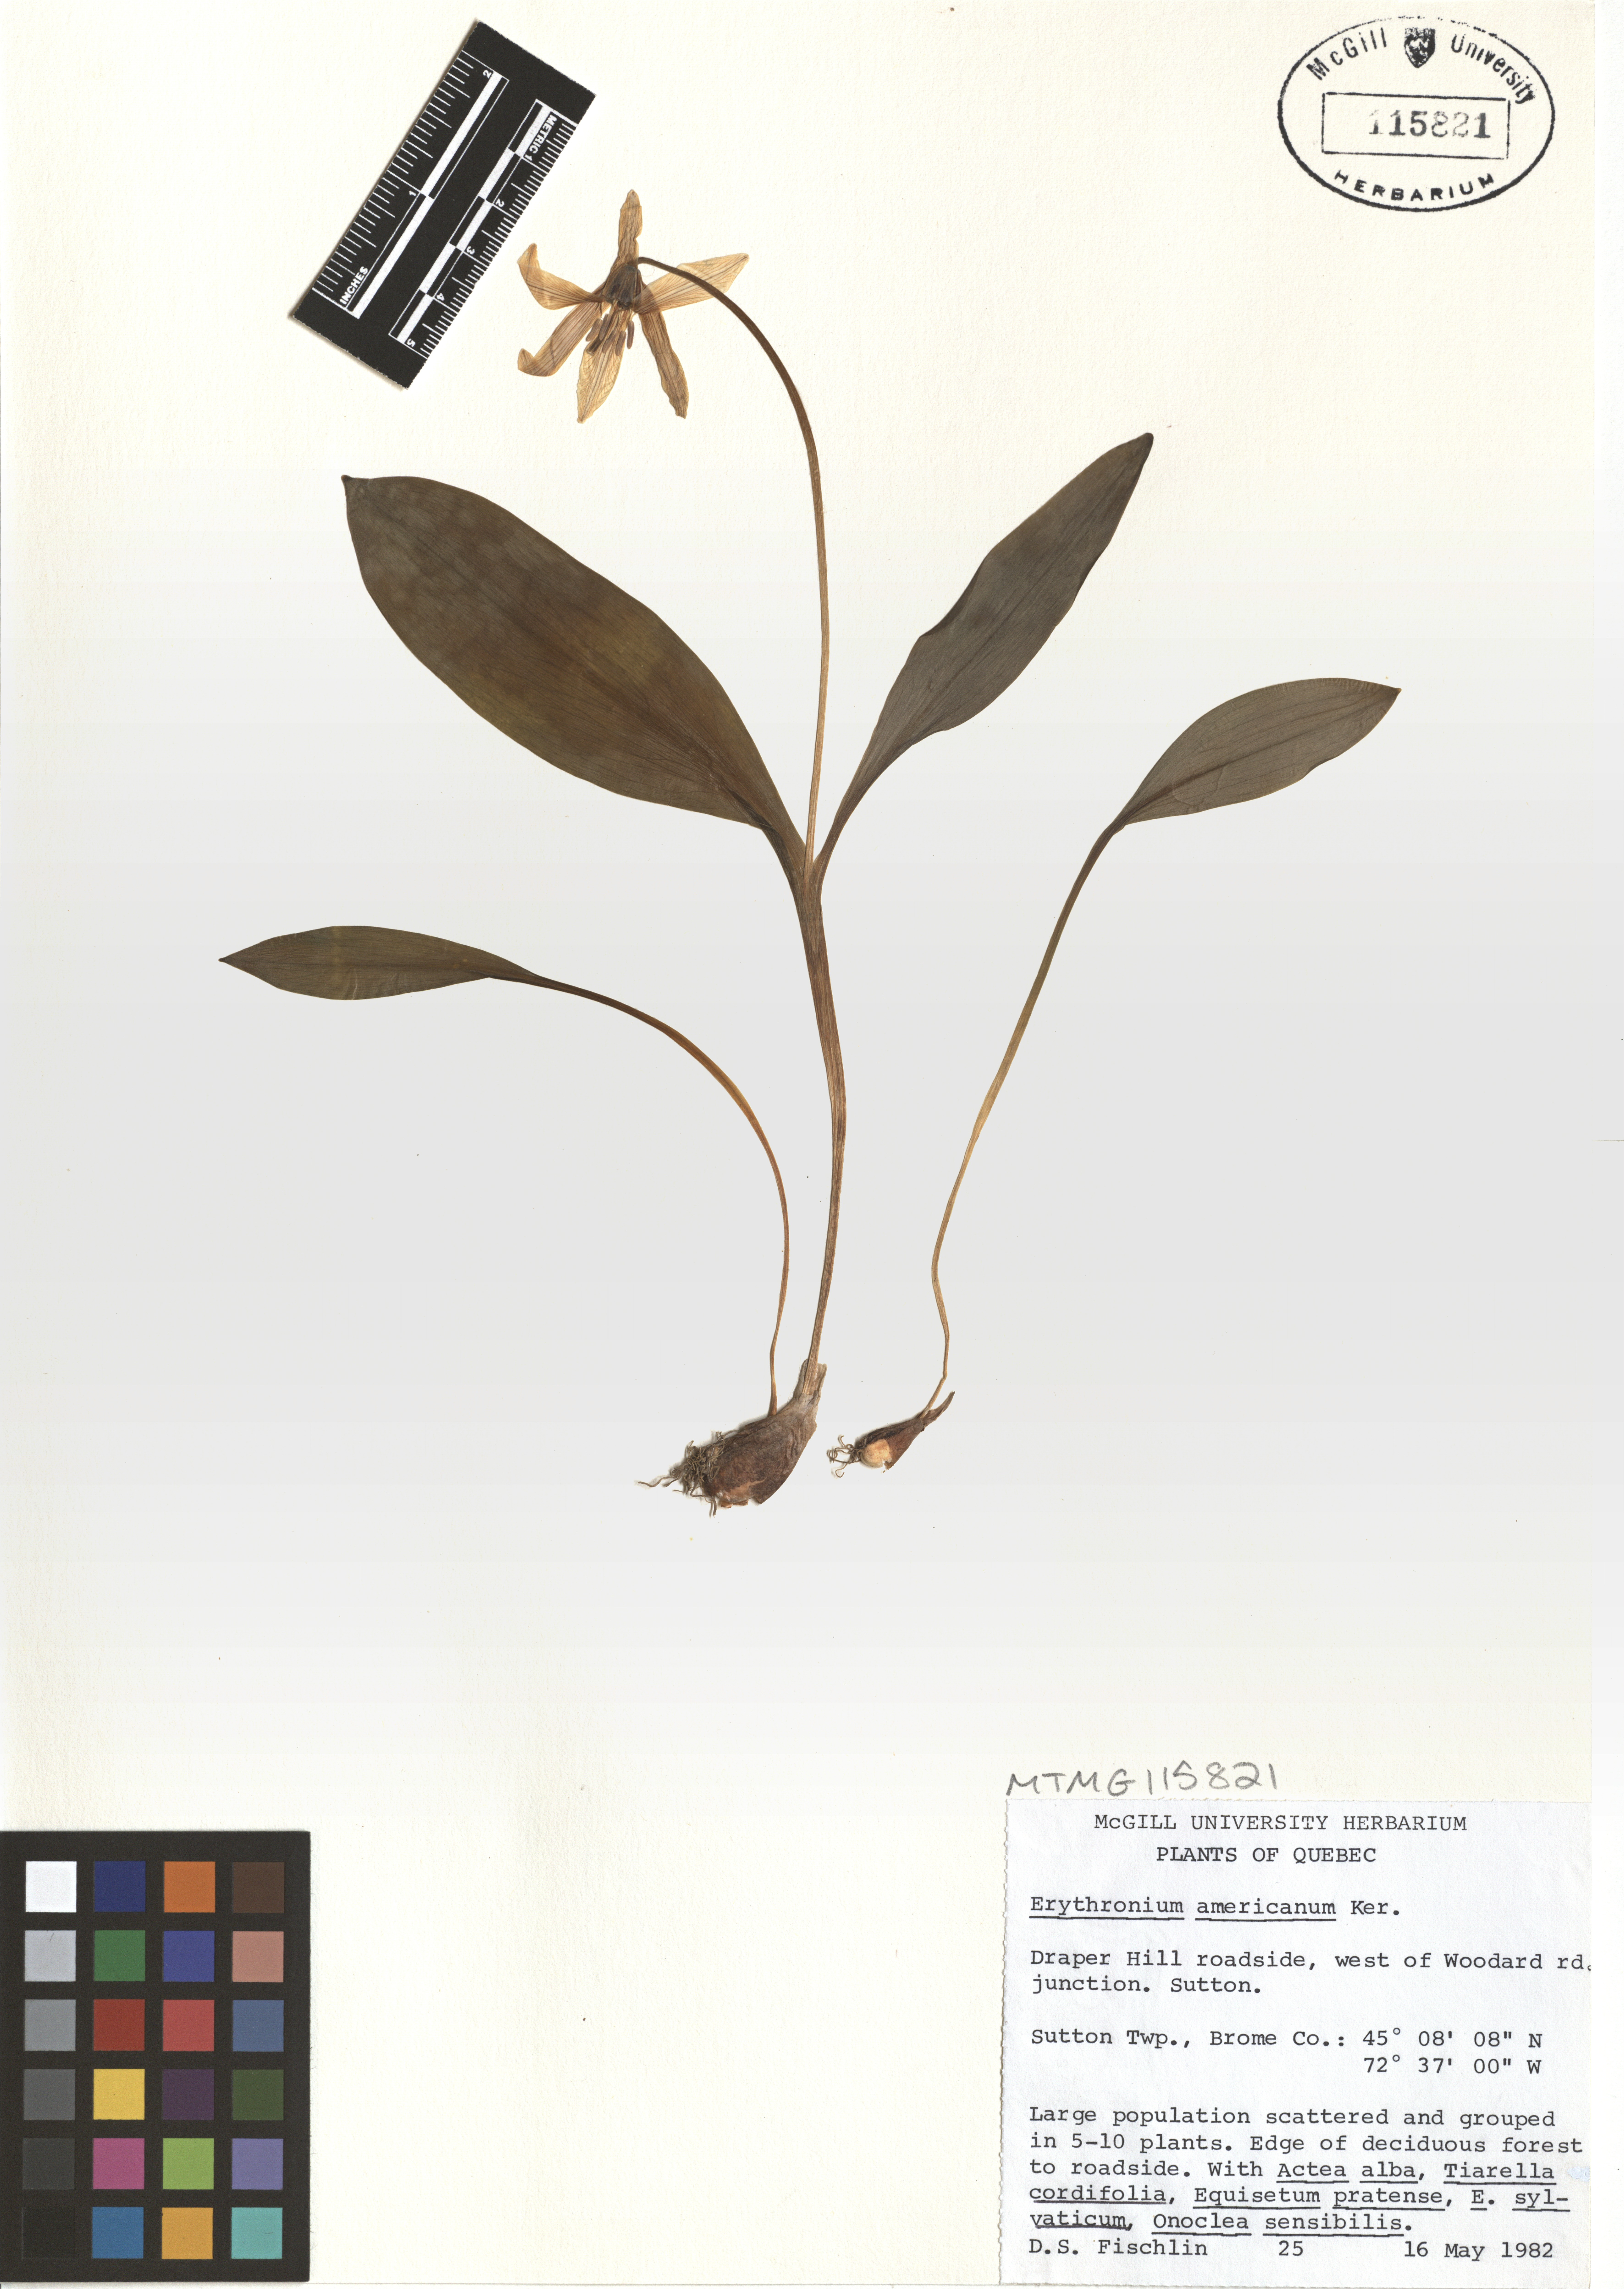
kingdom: Plantae
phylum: Tracheophyta
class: Liliopsida
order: Liliales
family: Liliaceae
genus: Erythronium
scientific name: Erythronium americanum
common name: Yellow adder's-tongue
